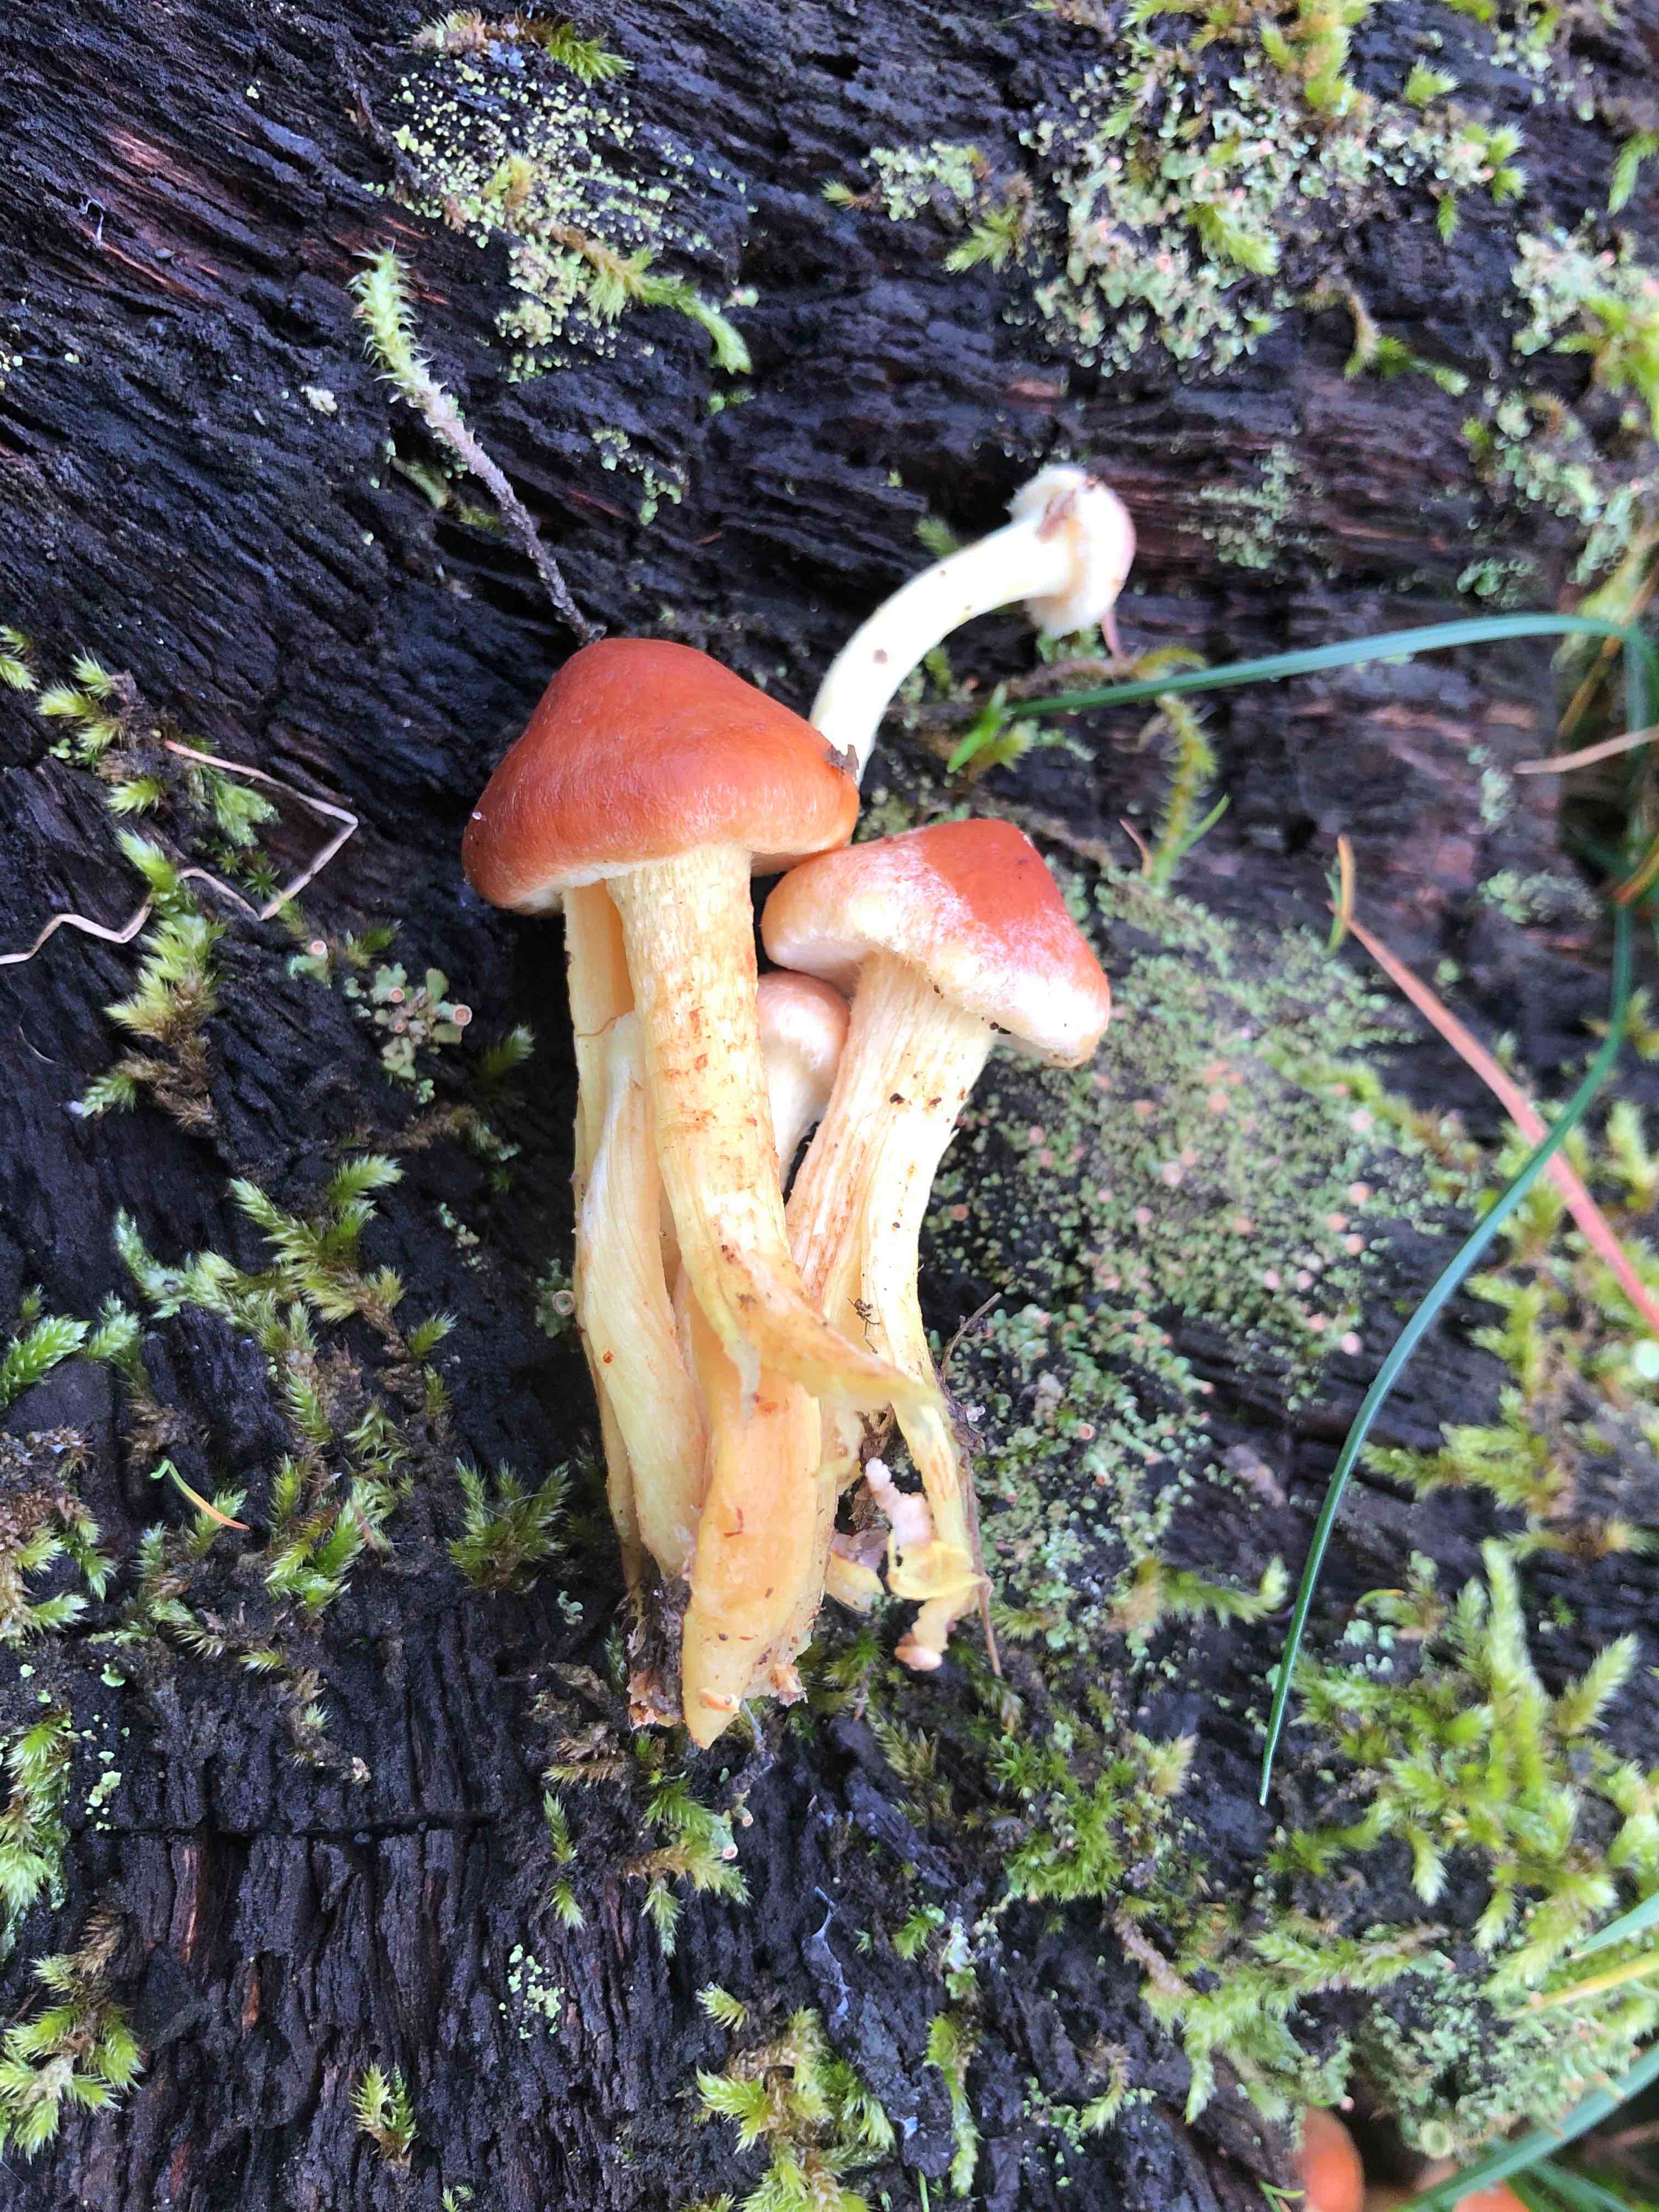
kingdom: Fungi
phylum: Basidiomycota
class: Agaricomycetes
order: Agaricales
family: Strophariaceae
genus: Hypholoma
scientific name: Hypholoma fasciculare
